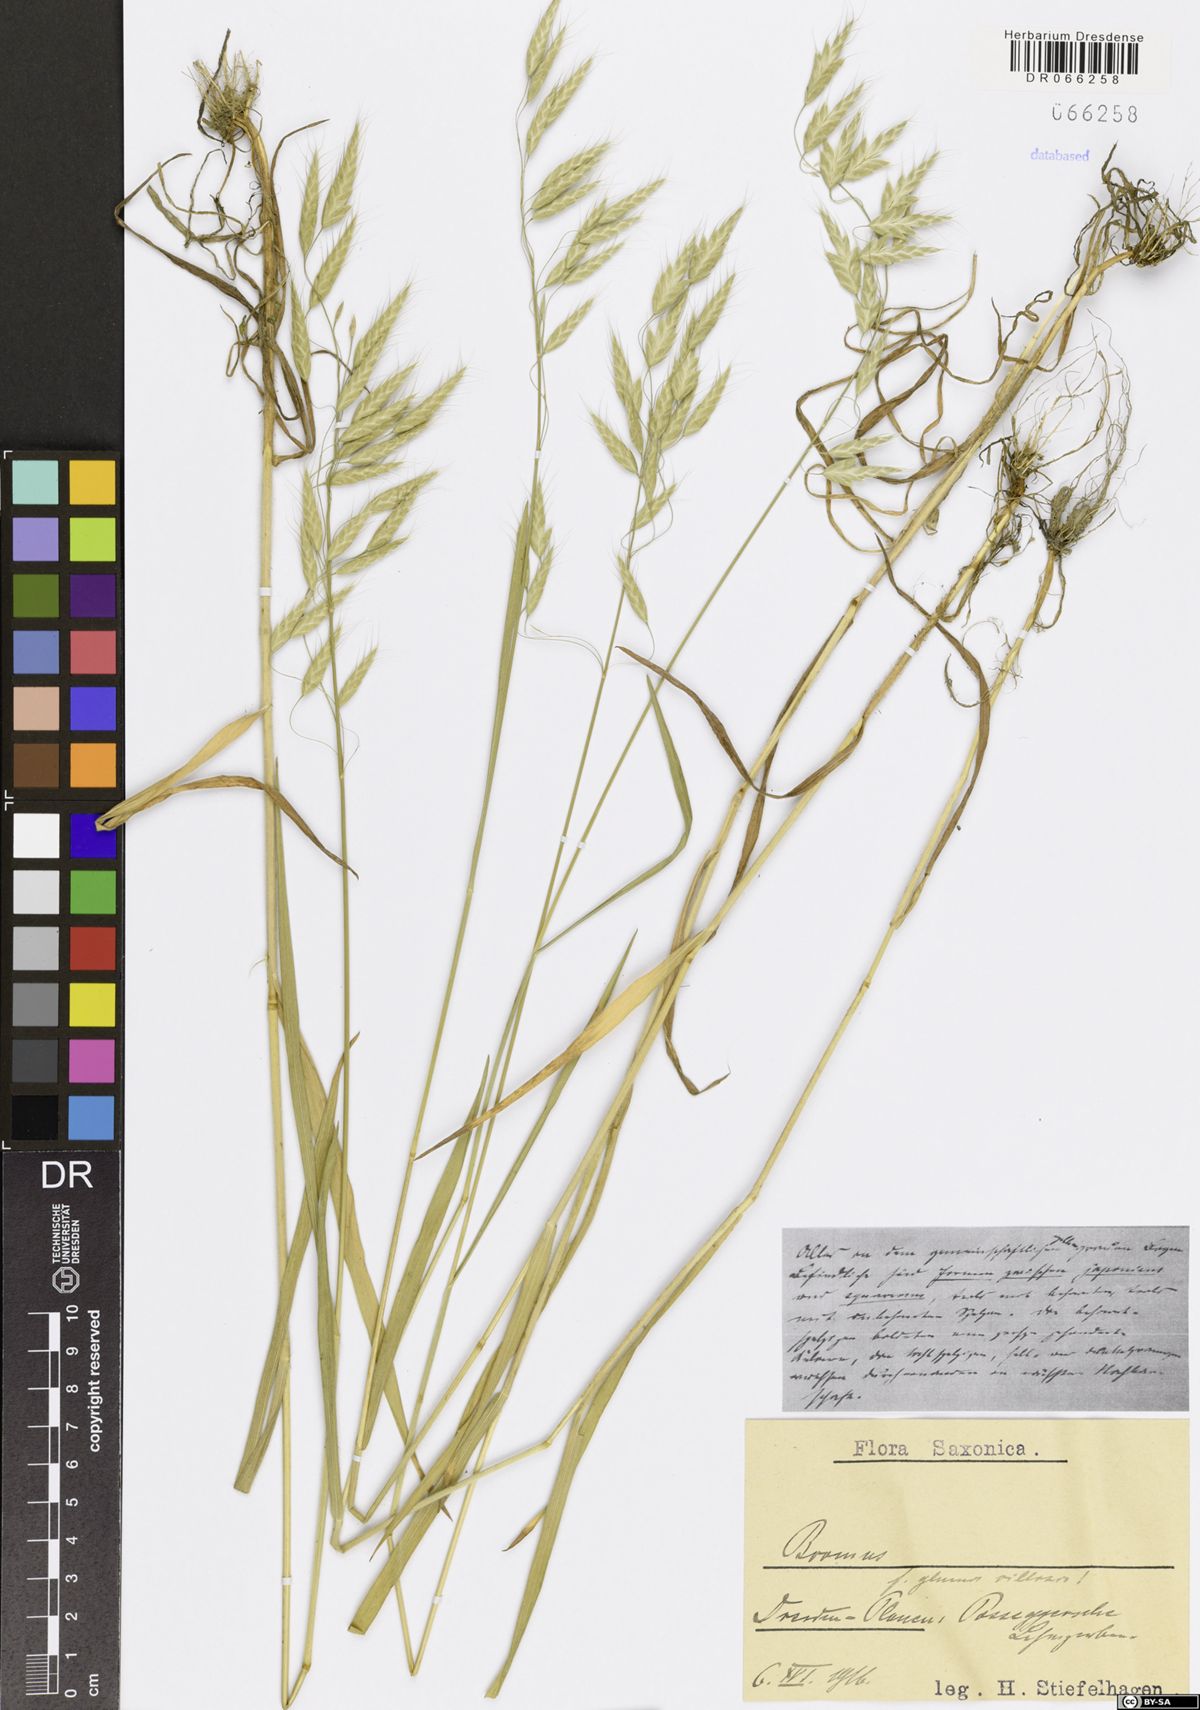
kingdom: Plantae
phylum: Tracheophyta
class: Liliopsida
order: Poales
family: Poaceae
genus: Bromus
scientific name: Bromus
